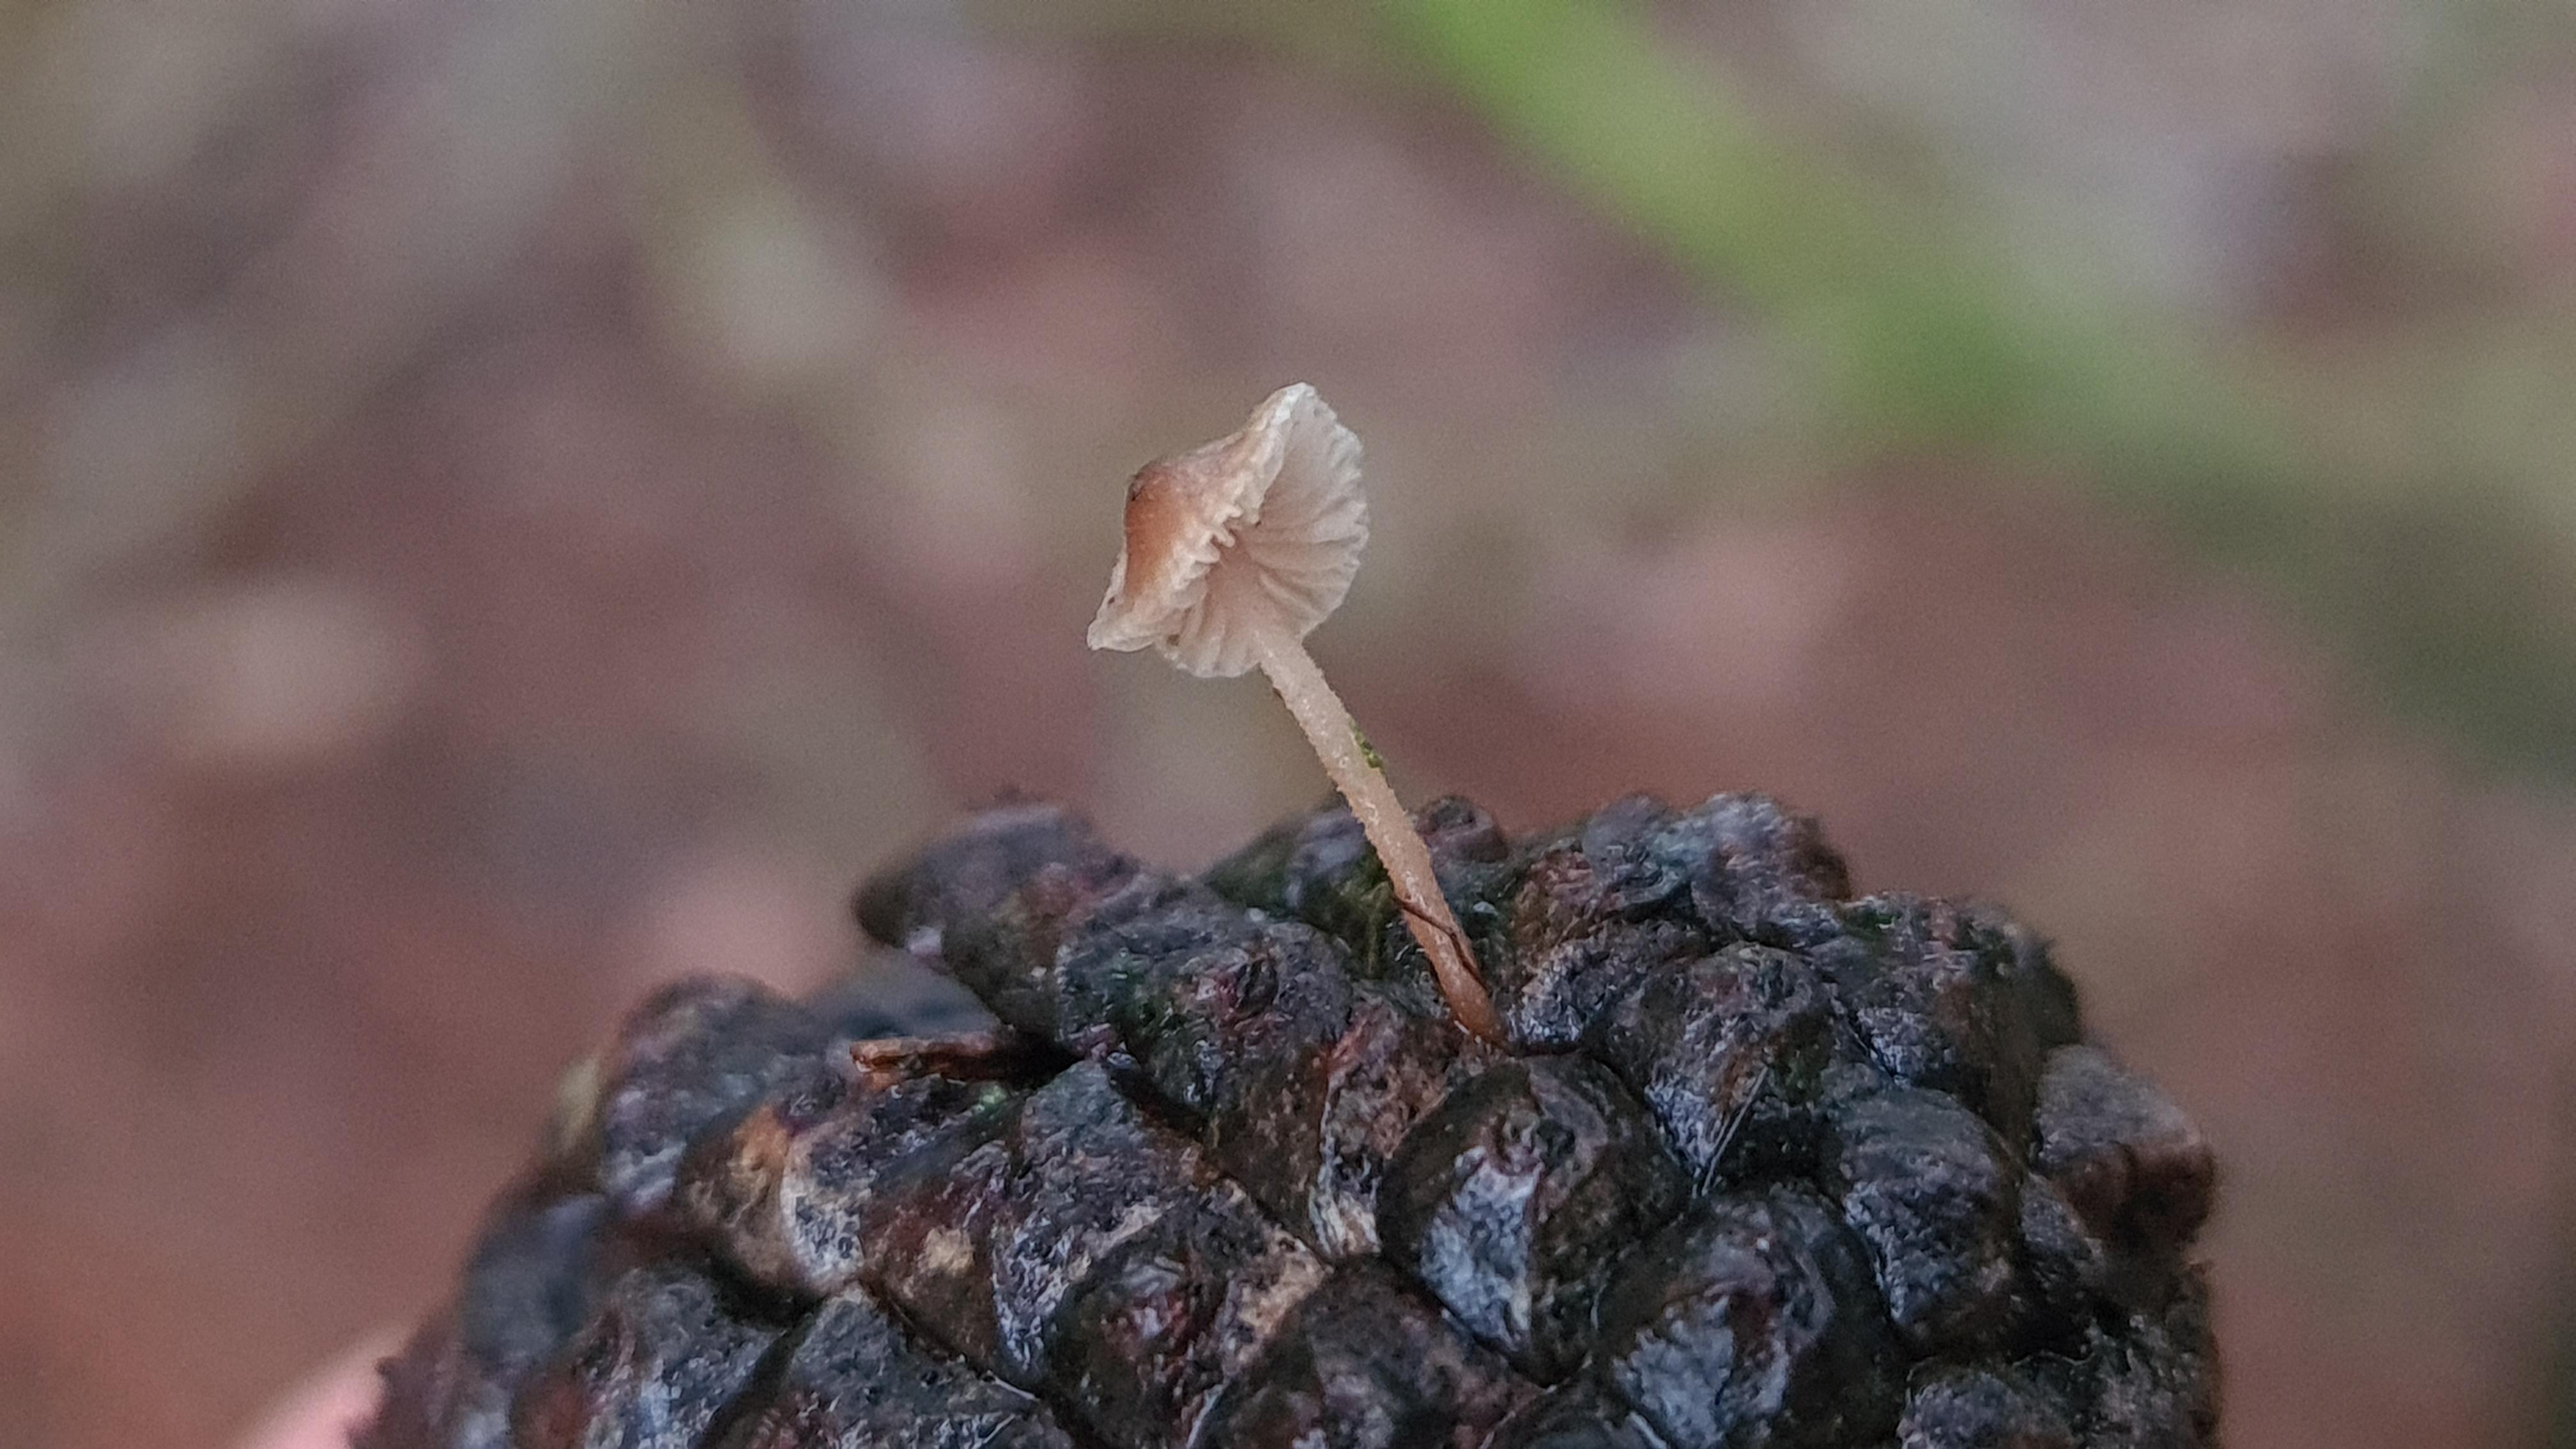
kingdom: Fungi
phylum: Basidiomycota
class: Agaricomycetes
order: Agaricales
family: Marasmiaceae
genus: Baeospora
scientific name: Baeospora myosura
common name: koglebruskhat
